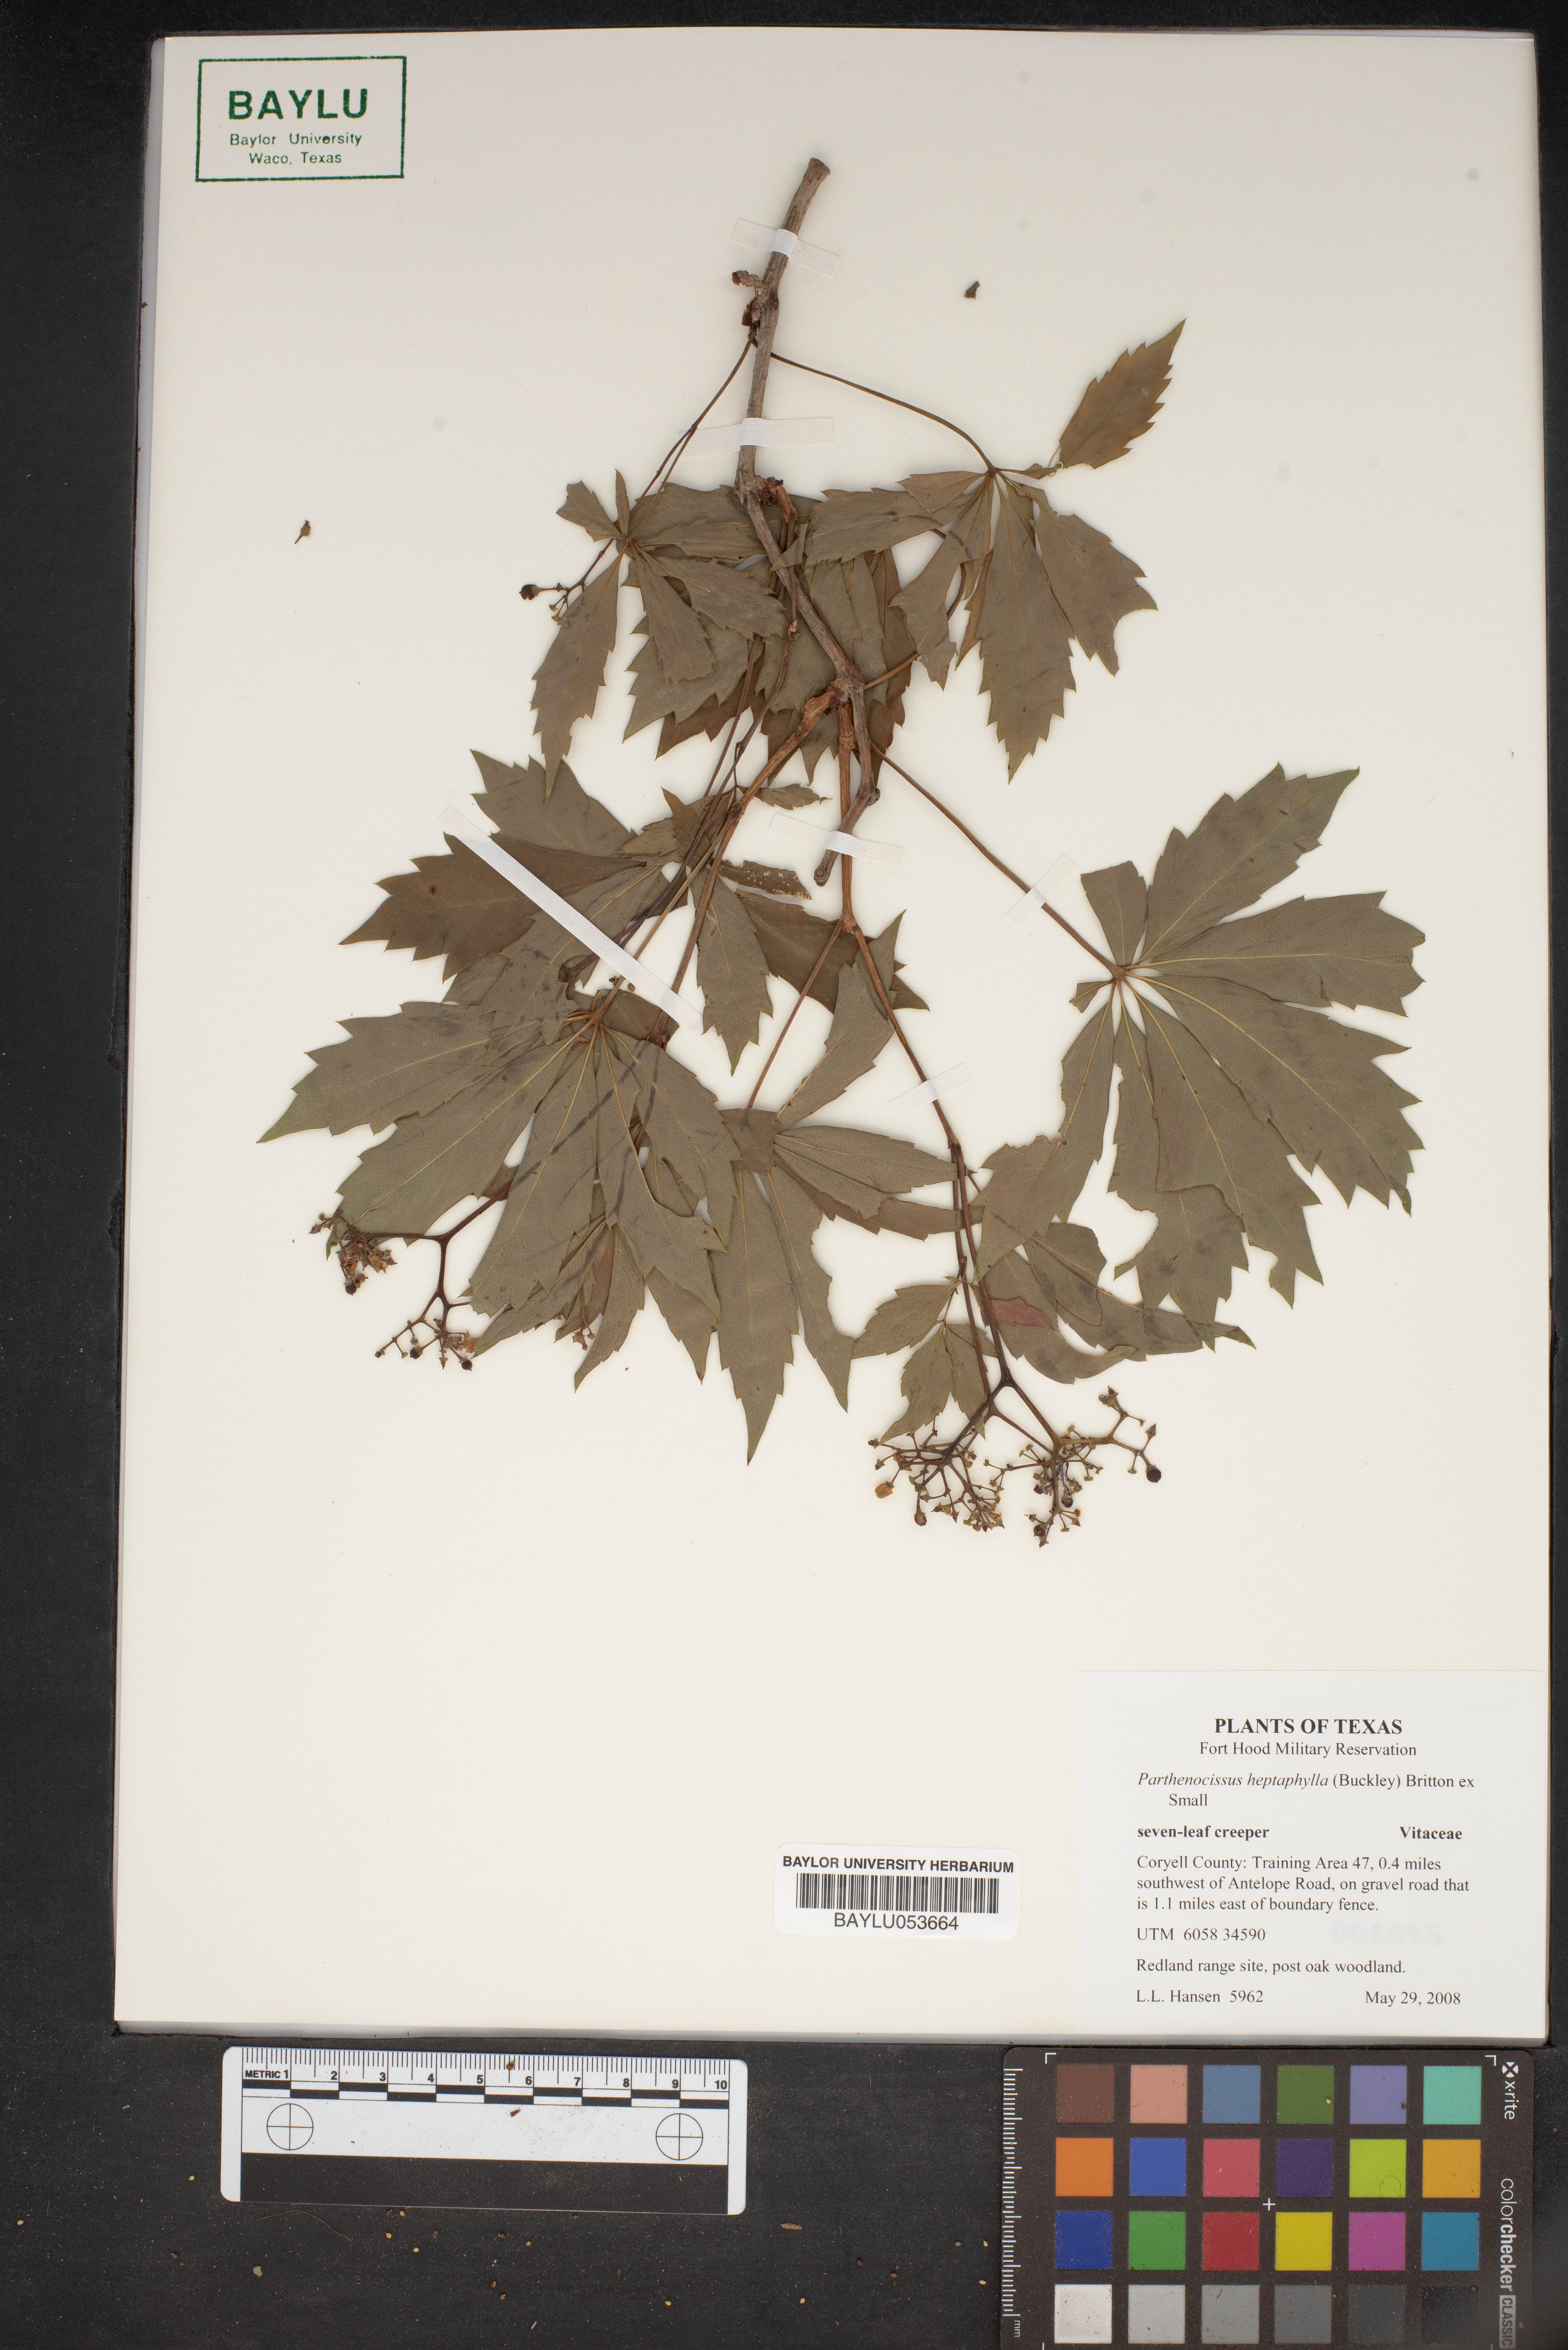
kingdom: Plantae
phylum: Tracheophyta
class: Magnoliopsida
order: Vitales
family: Vitaceae
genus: Parthenocissus
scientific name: Parthenocissus heptaphylla
